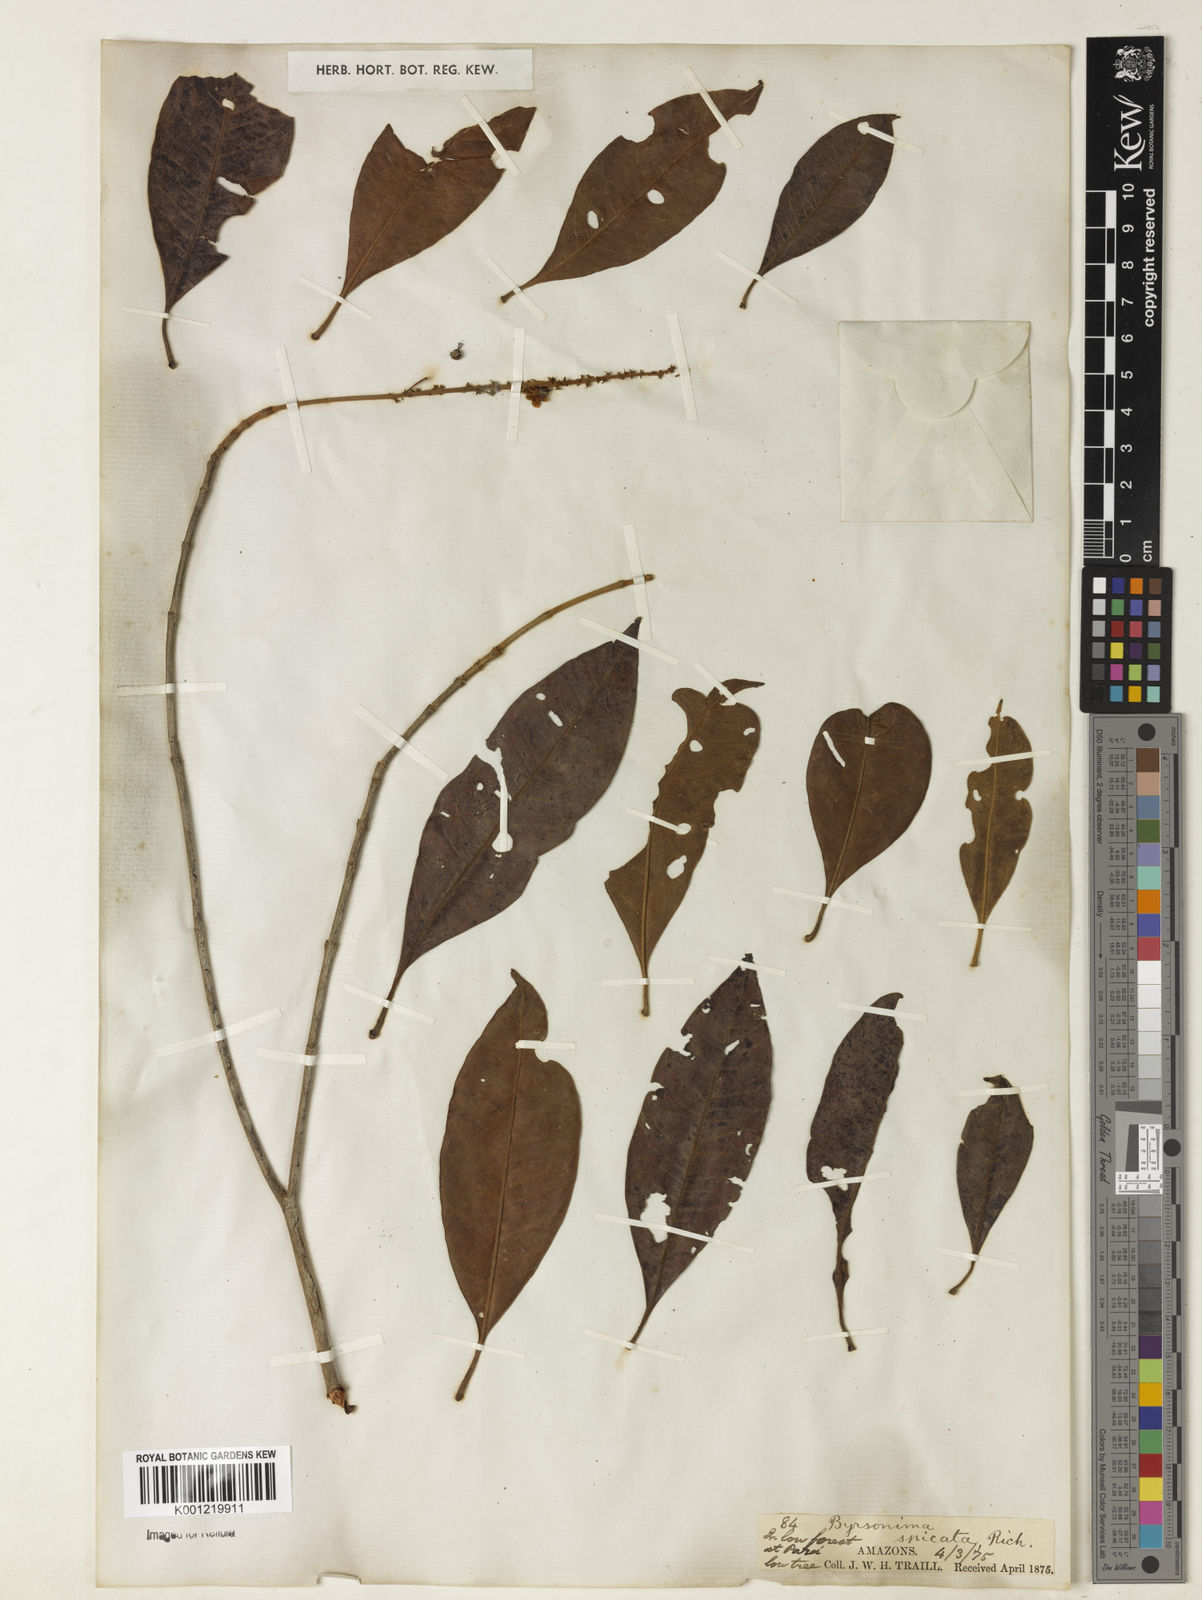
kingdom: Plantae
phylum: Tracheophyta
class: Magnoliopsida
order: Malpighiales
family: Malpighiaceae
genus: Byrsonima
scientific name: Byrsonima
